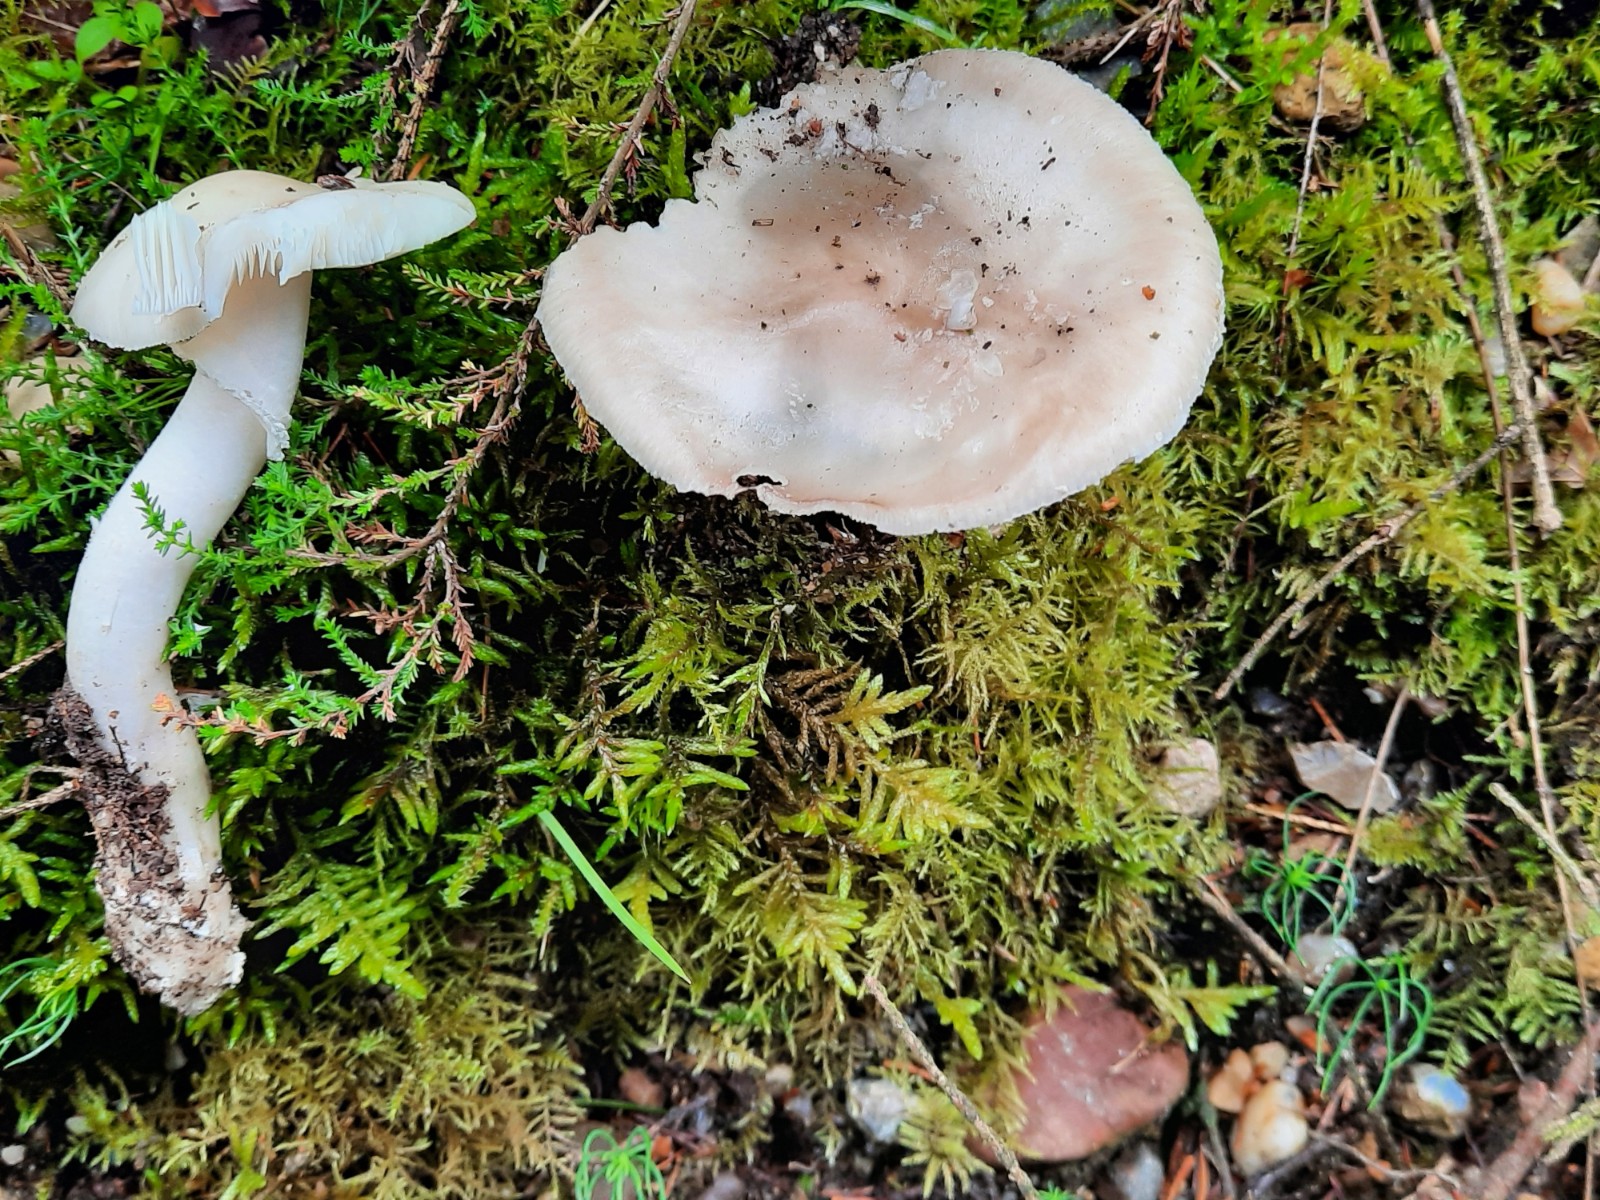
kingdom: Fungi
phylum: Basidiomycota
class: Agaricomycetes
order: Agaricales
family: Amanitaceae
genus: Amanita
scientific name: Amanita
